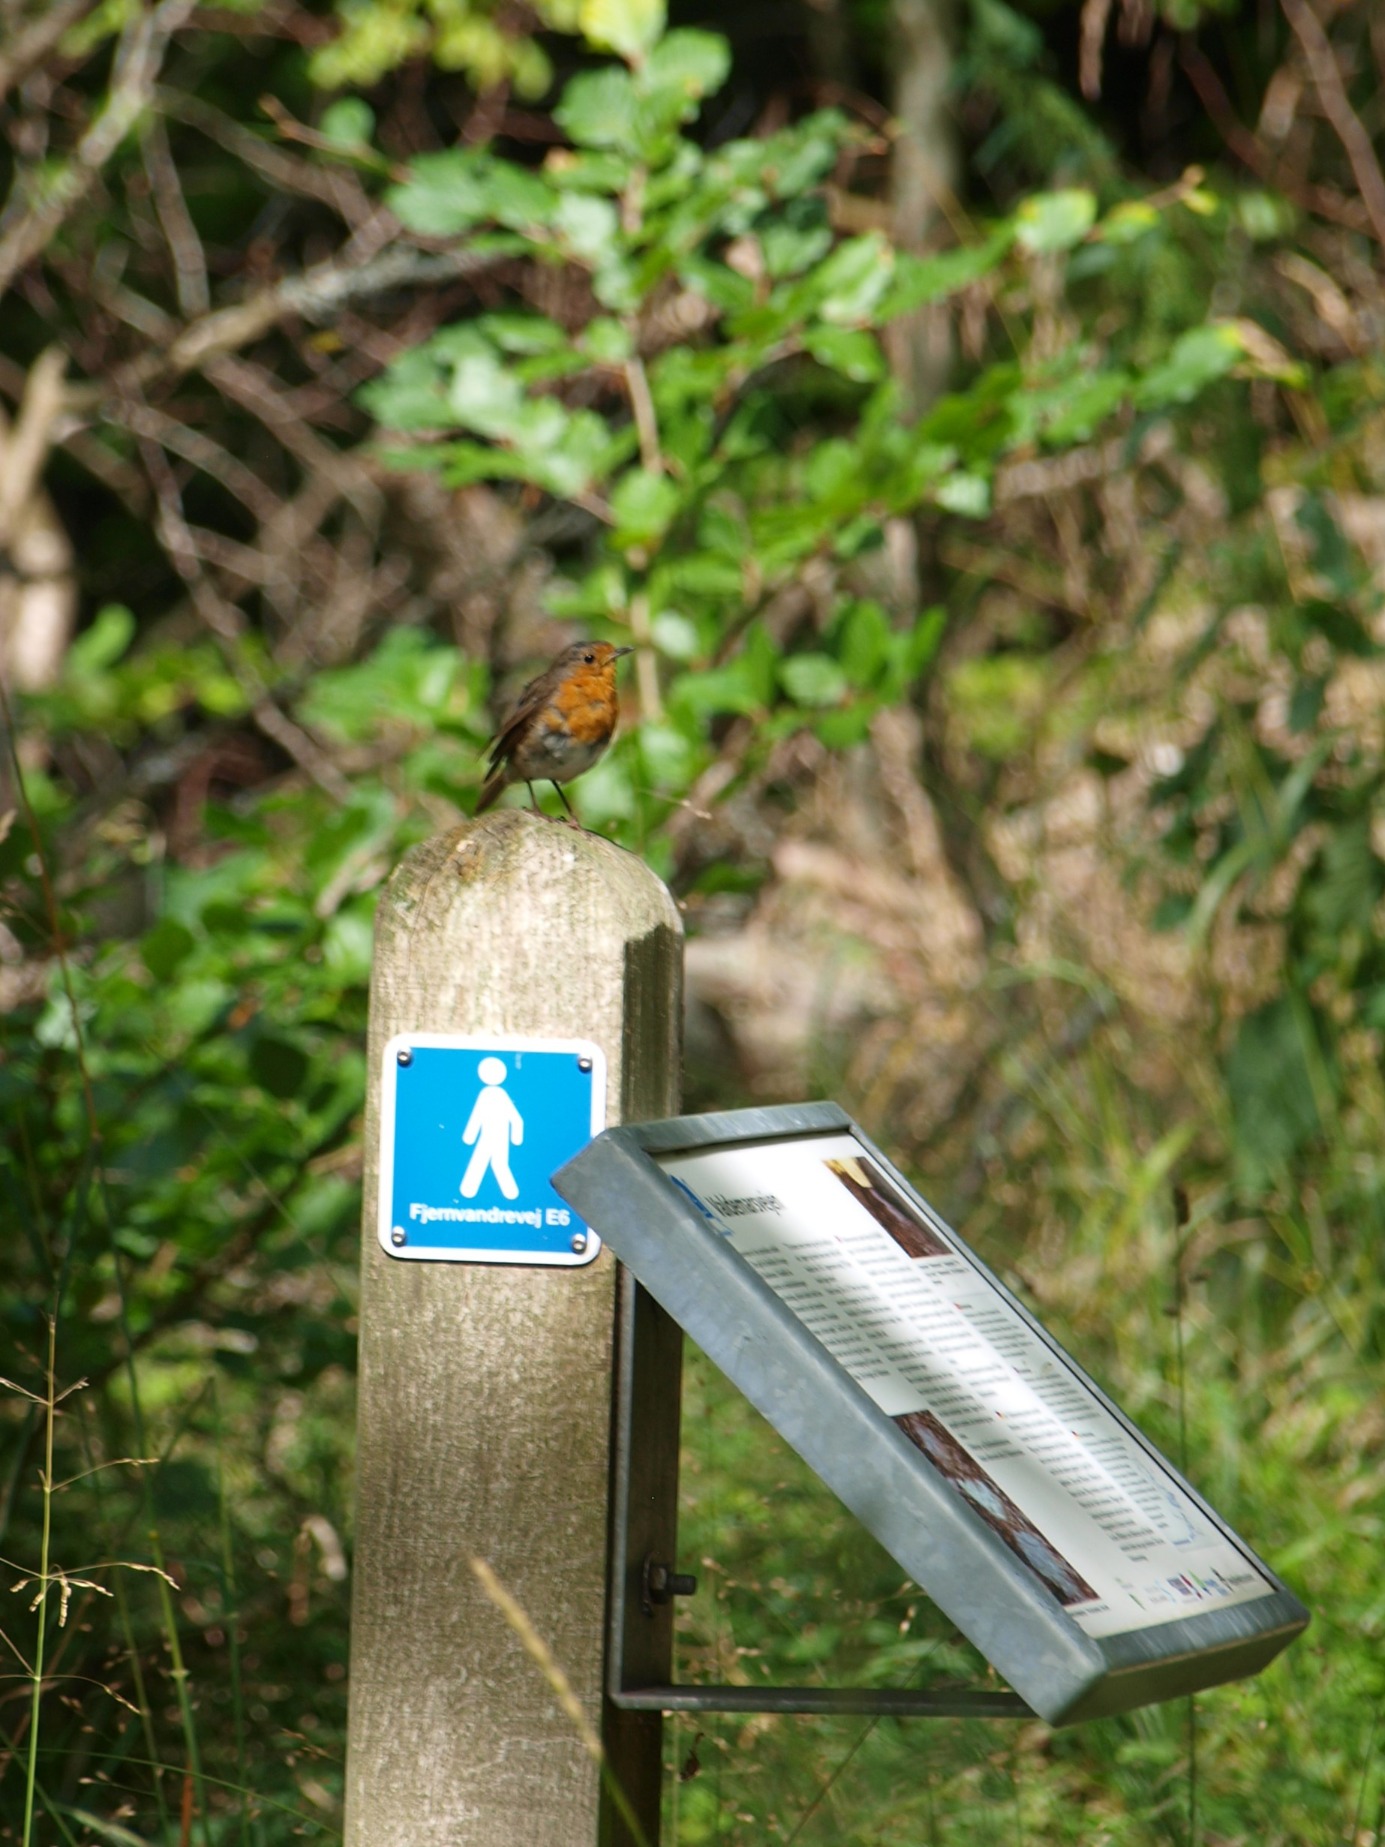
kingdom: Animalia
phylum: Chordata
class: Aves
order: Passeriformes
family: Muscicapidae
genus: Erithacus
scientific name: Erithacus rubecula
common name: Rødhals/rødkælk
